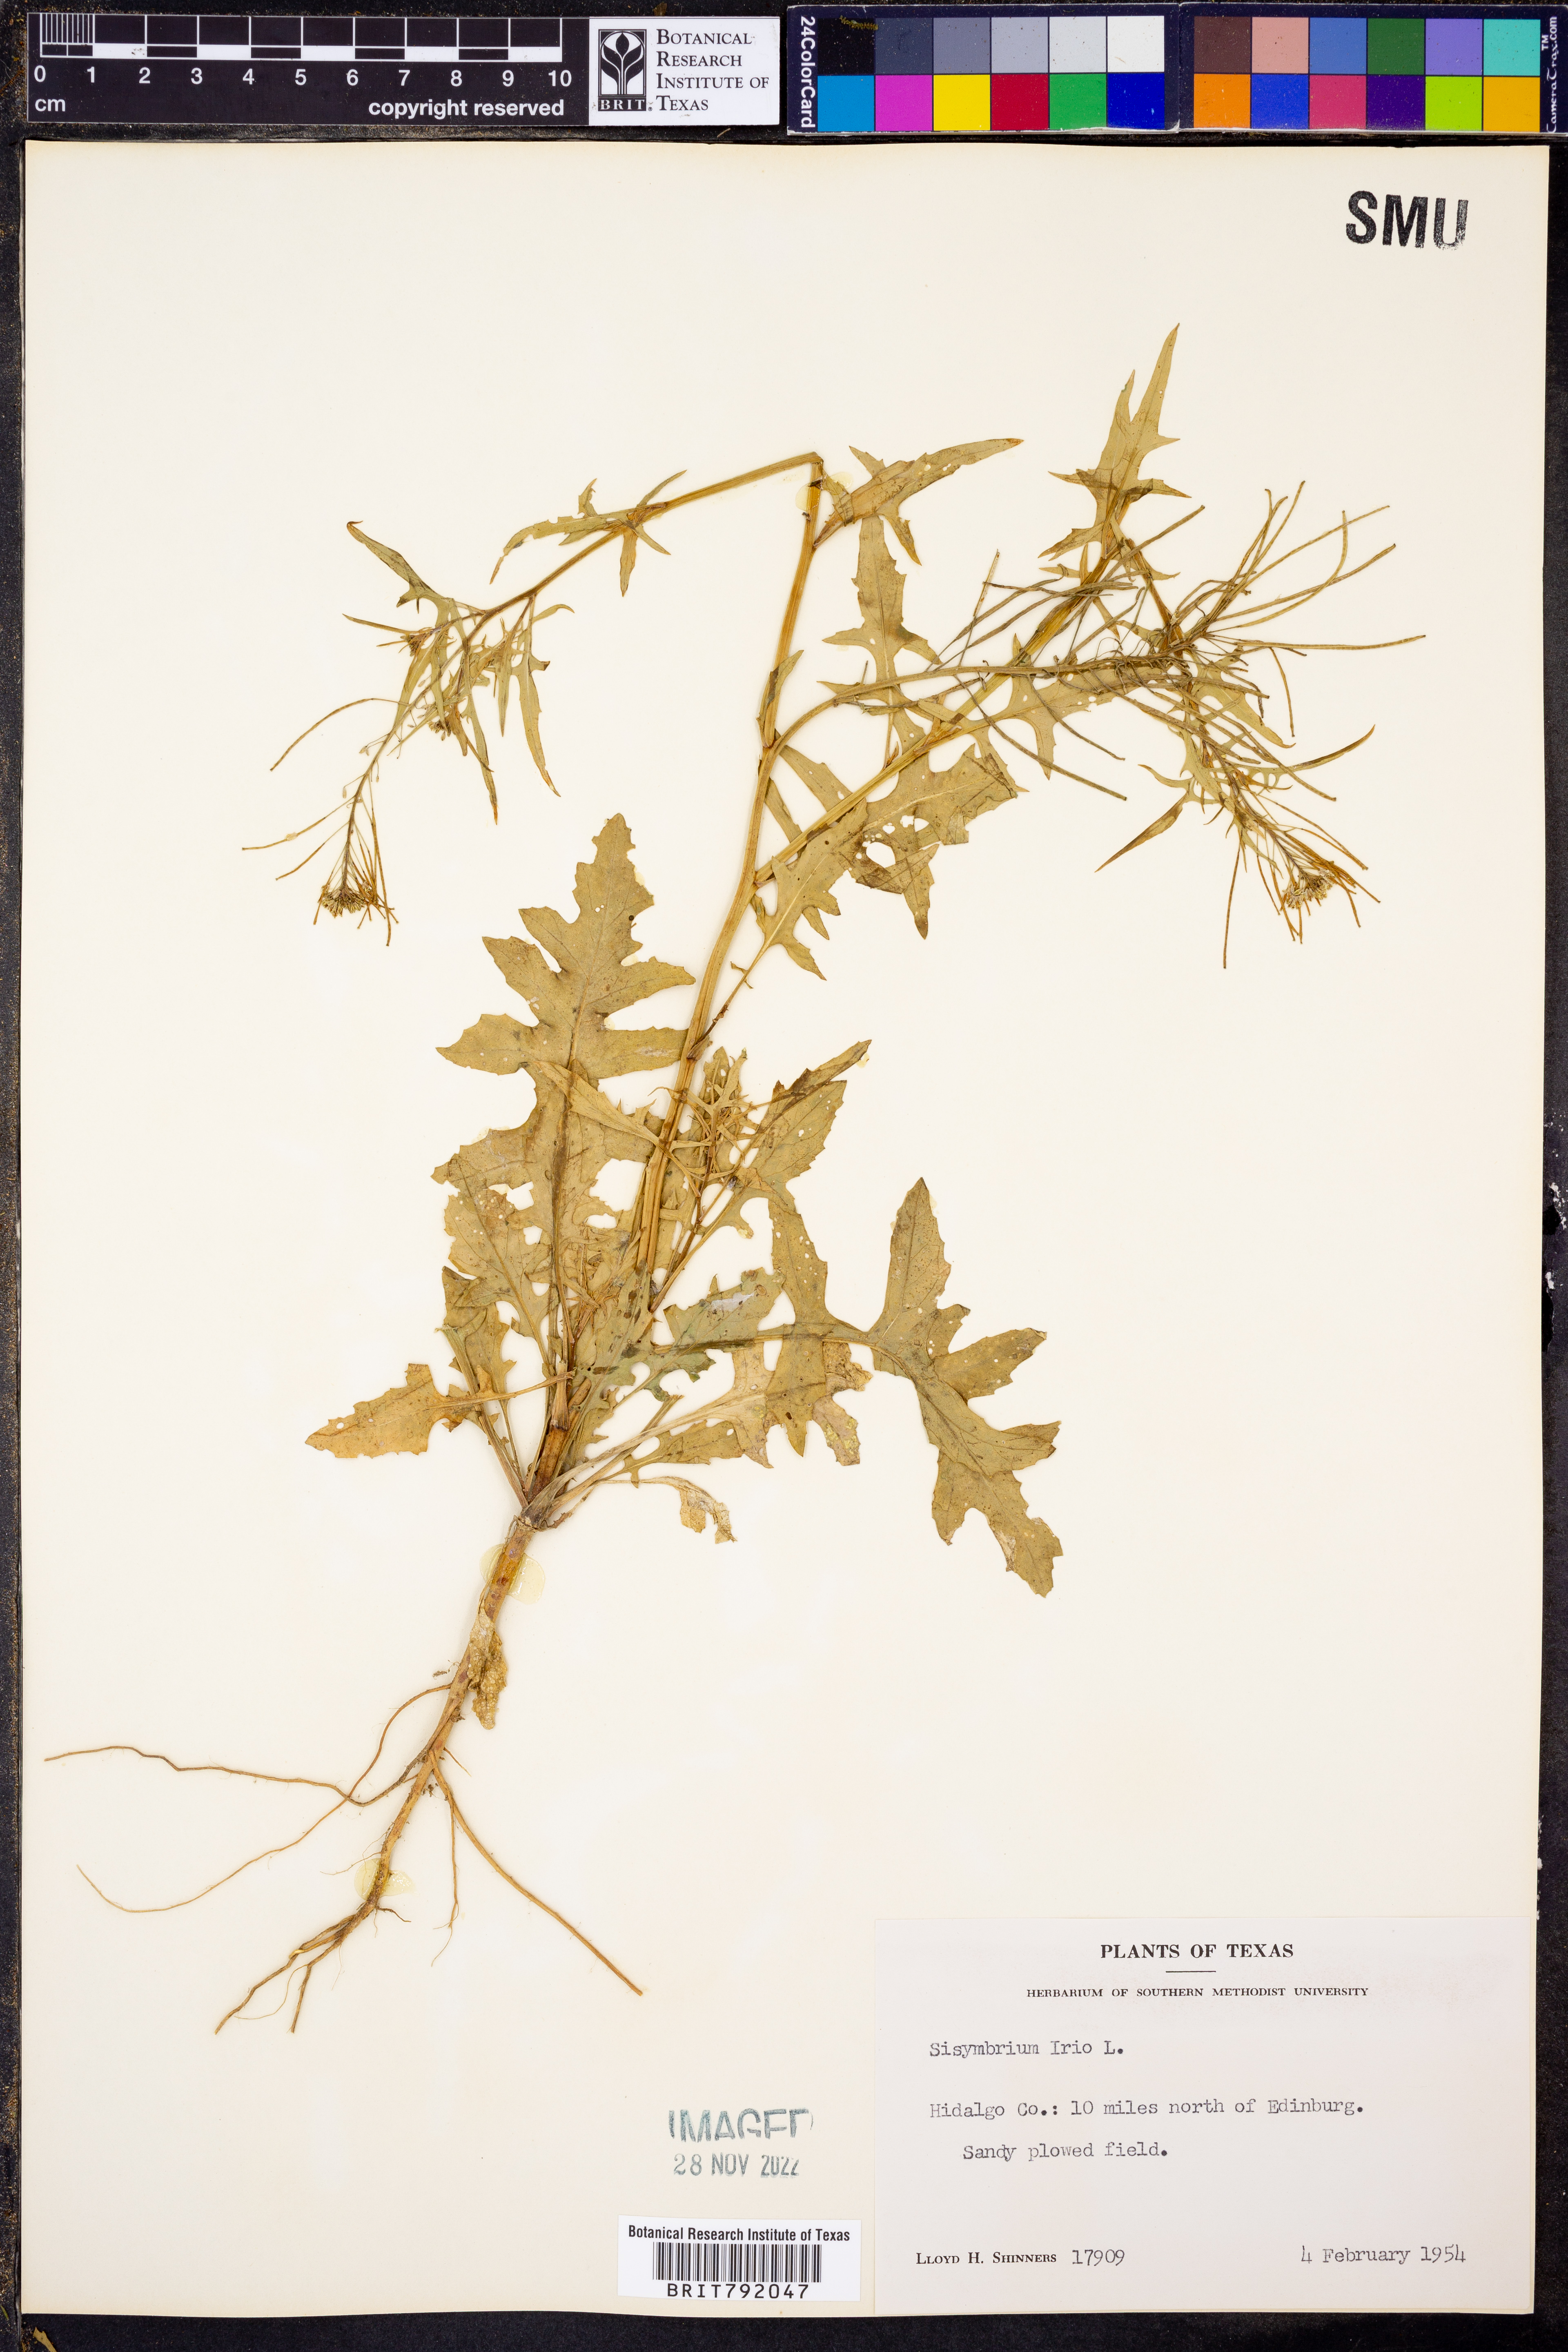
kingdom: Plantae
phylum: Tracheophyta
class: Magnoliopsida
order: Brassicales
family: Brassicaceae
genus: Sisymbrium
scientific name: Sisymbrium irio
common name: London rocket
